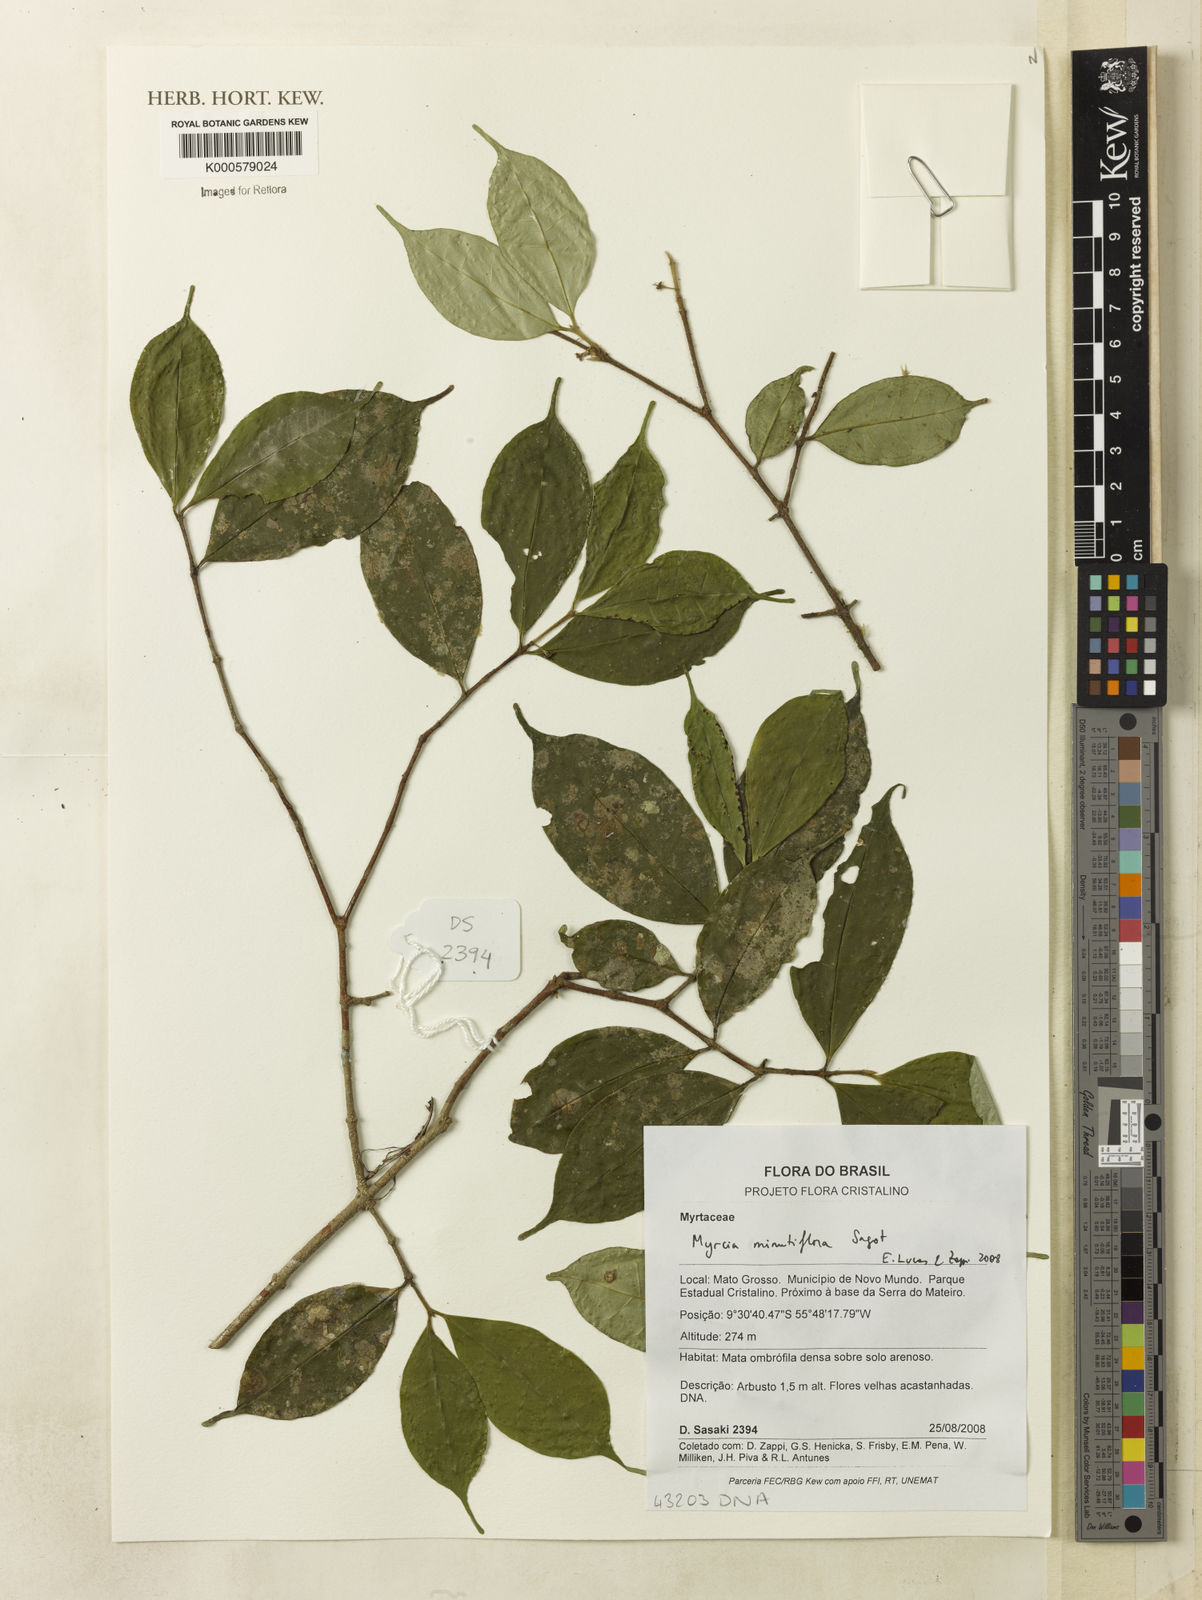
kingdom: Plantae
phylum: Tracheophyta
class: Magnoliopsida
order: Myrtales
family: Myrtaceae
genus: Myrcia
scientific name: Myrcia minutiflora
